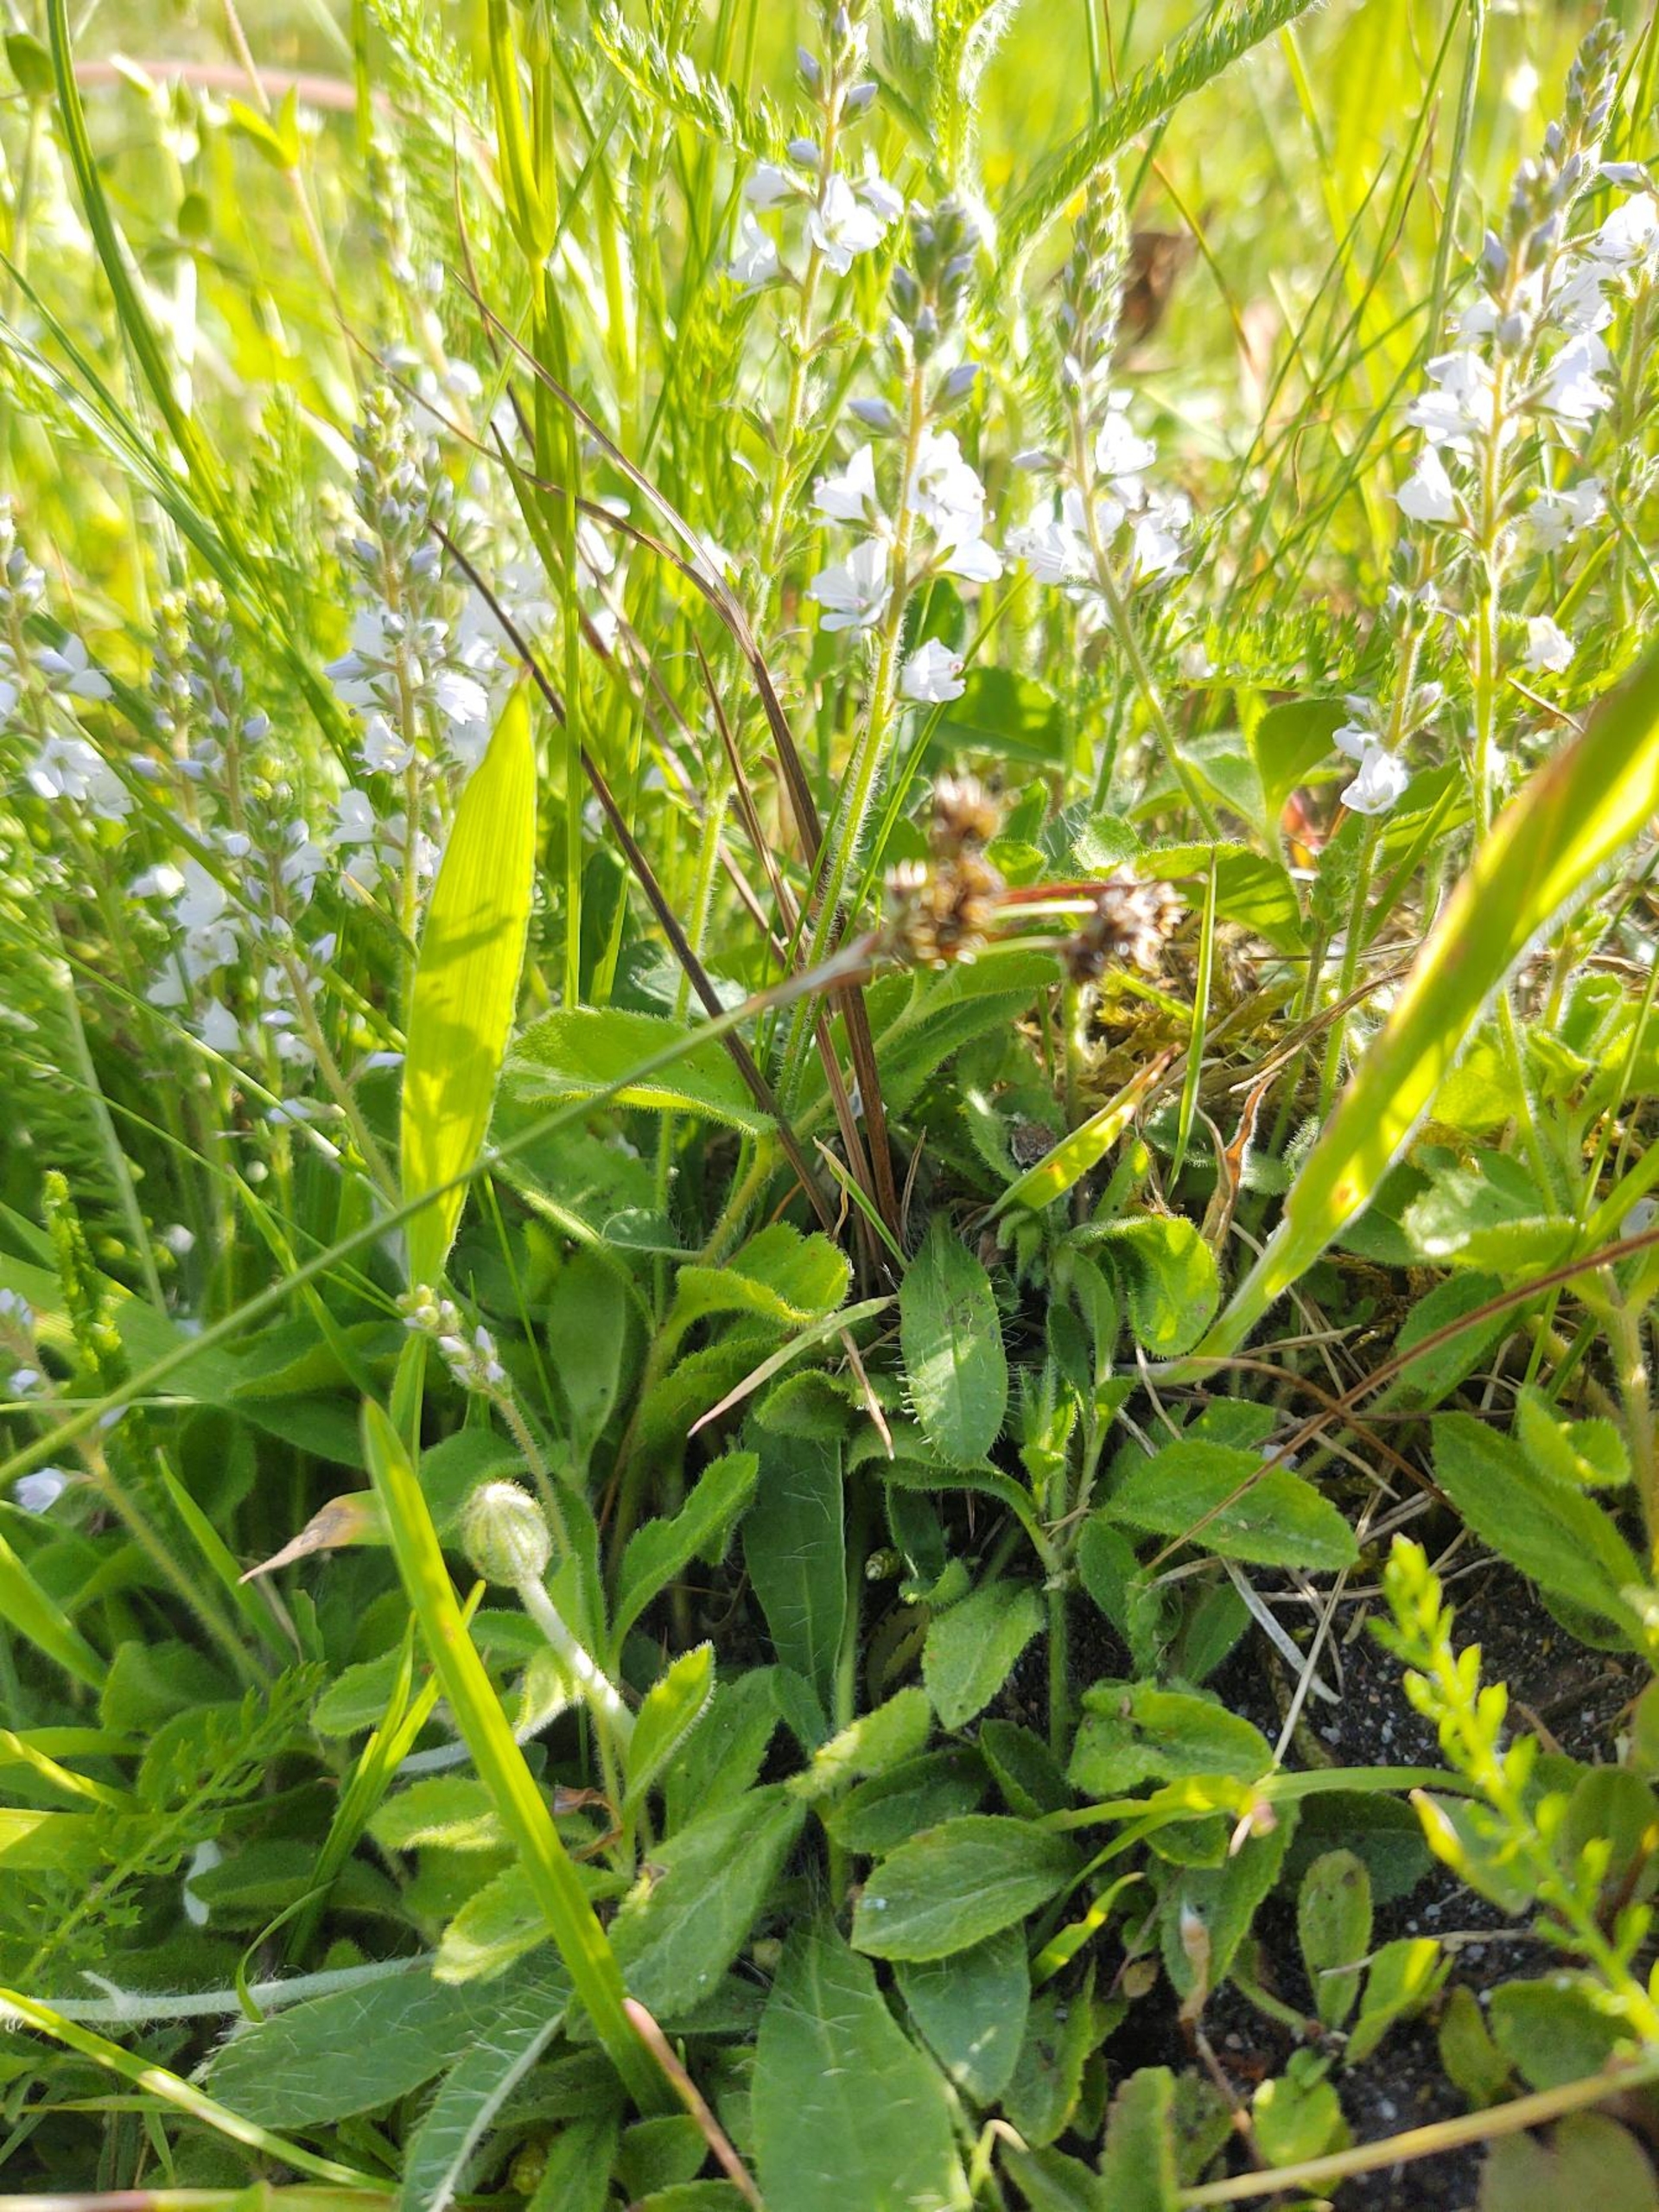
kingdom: Plantae
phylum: Tracheophyta
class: Magnoliopsida
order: Lamiales
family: Plantaginaceae
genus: Veronica
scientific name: Veronica officinalis
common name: Læge-ærenpris
